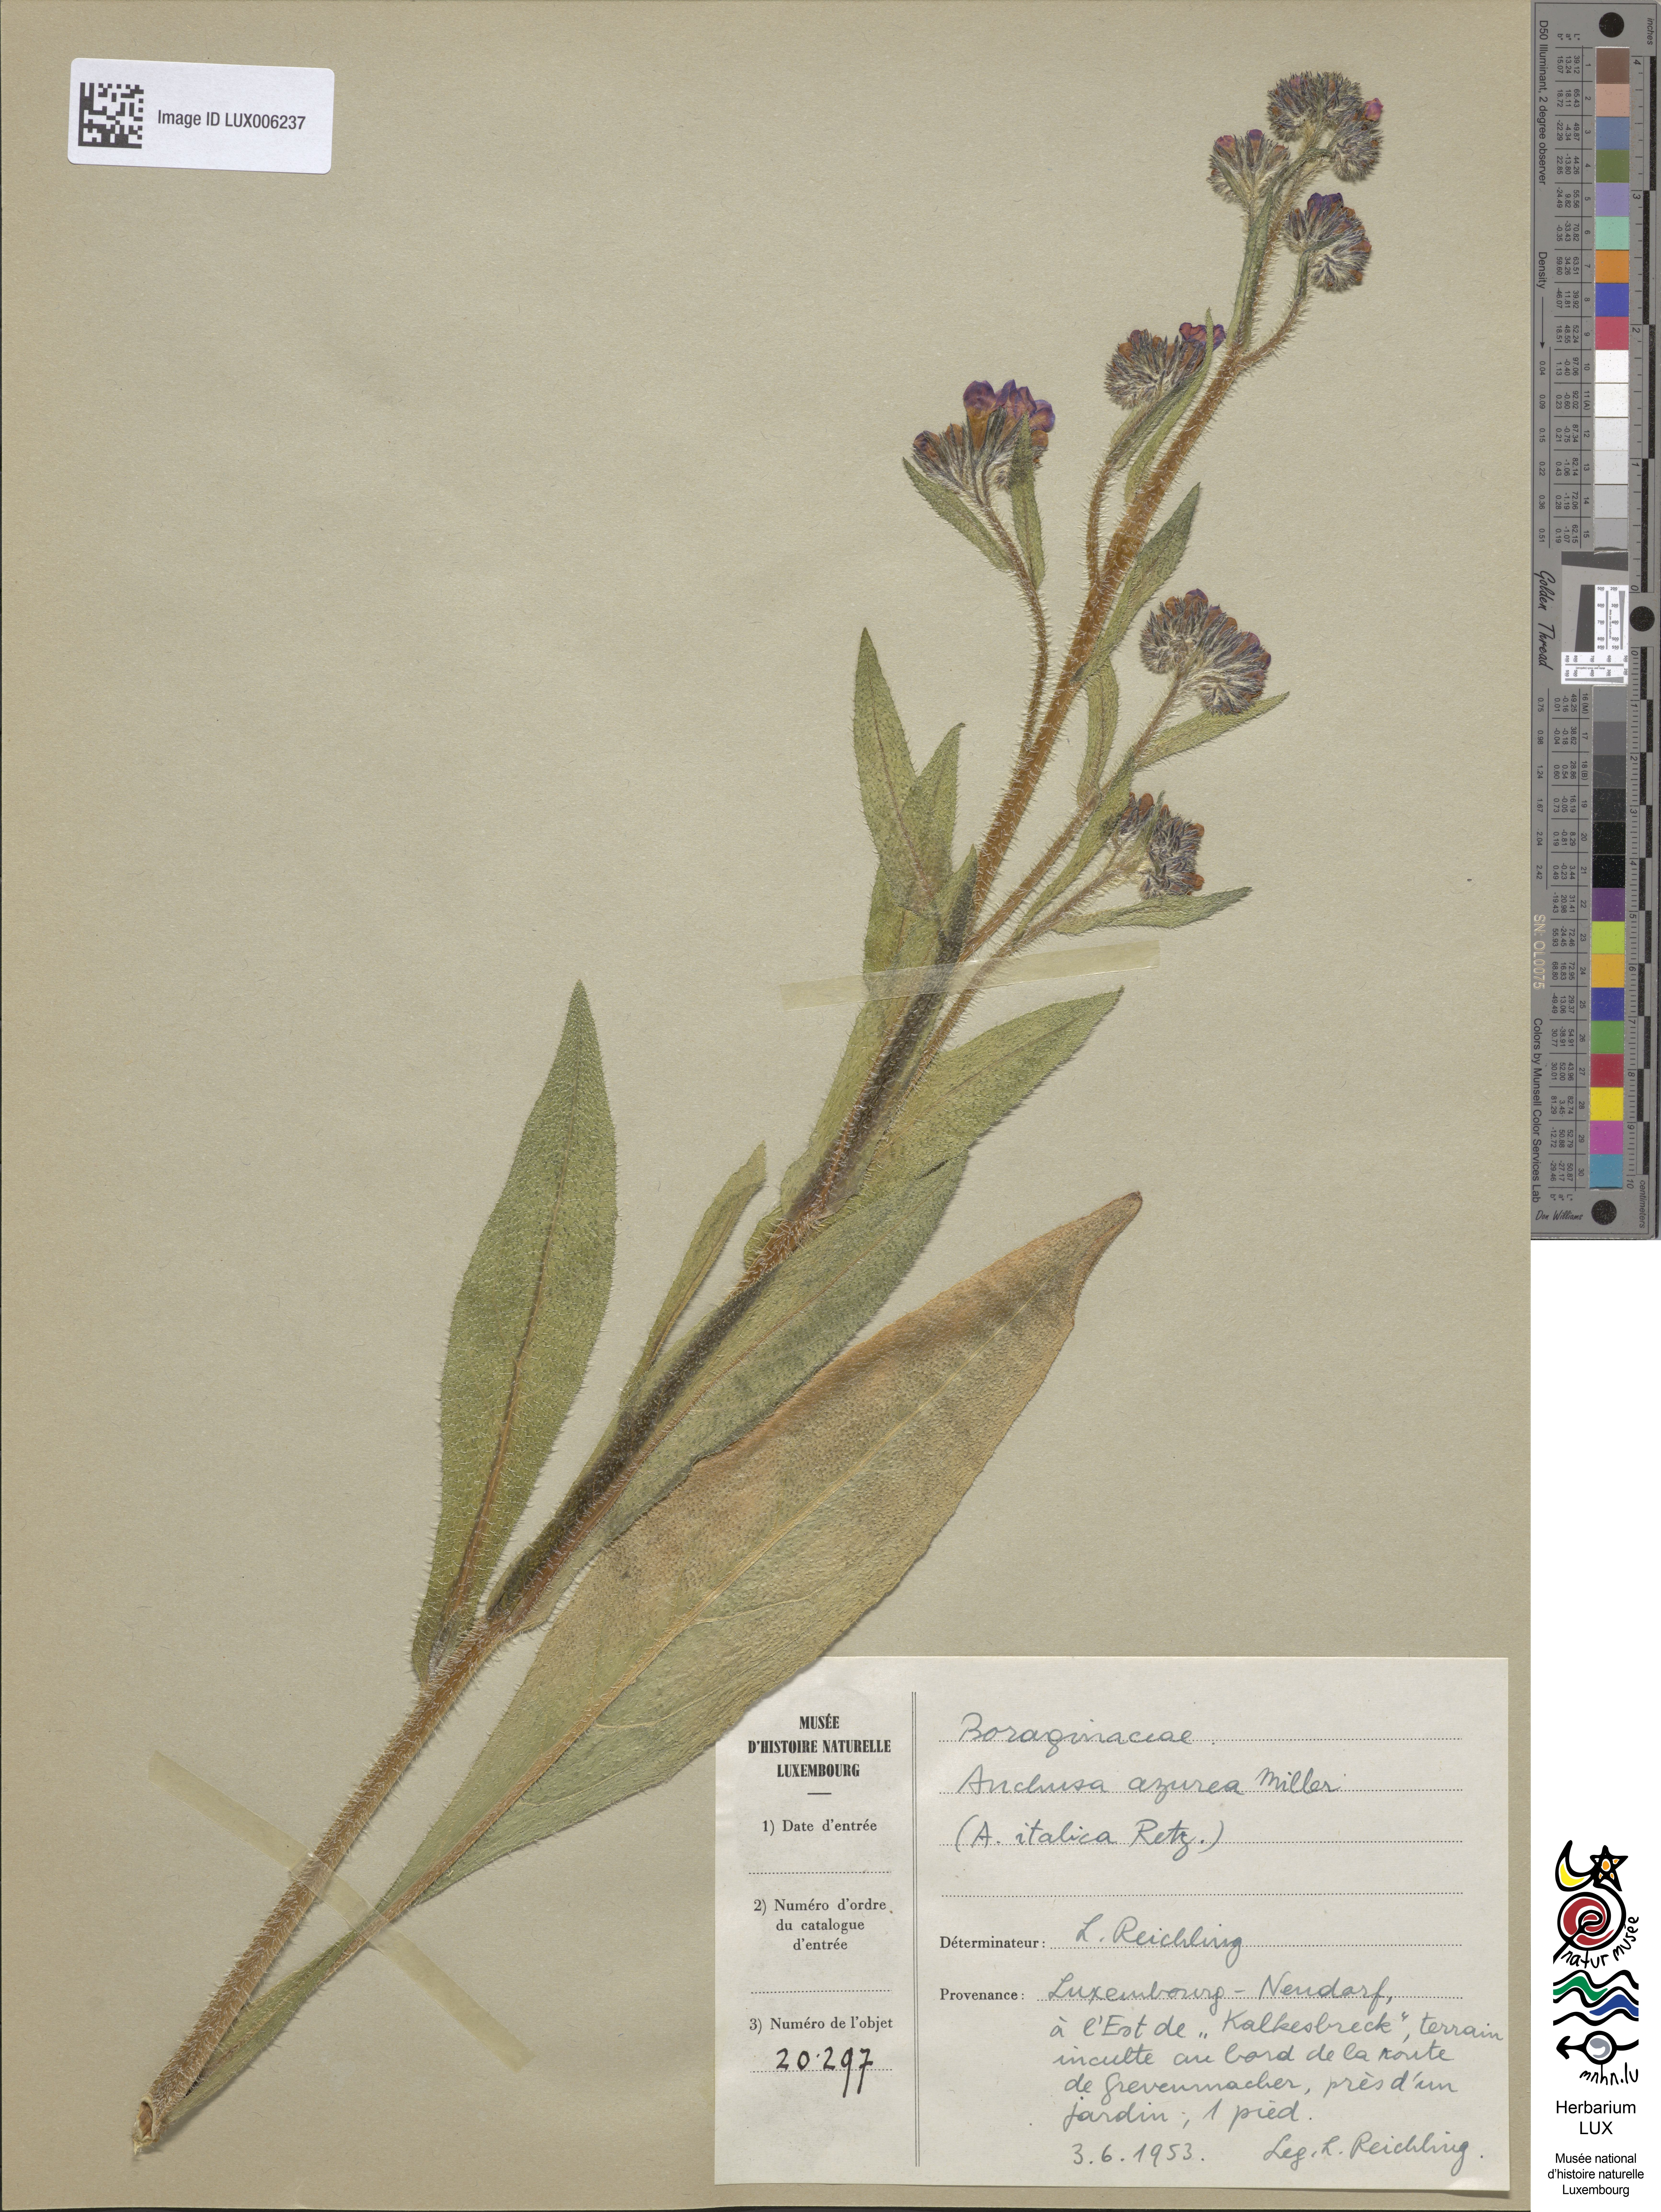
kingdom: Plantae
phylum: Tracheophyta
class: Magnoliopsida
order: Boraginales
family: Boraginaceae
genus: Anchusa
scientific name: Anchusa azurea
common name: Garden anchusa
